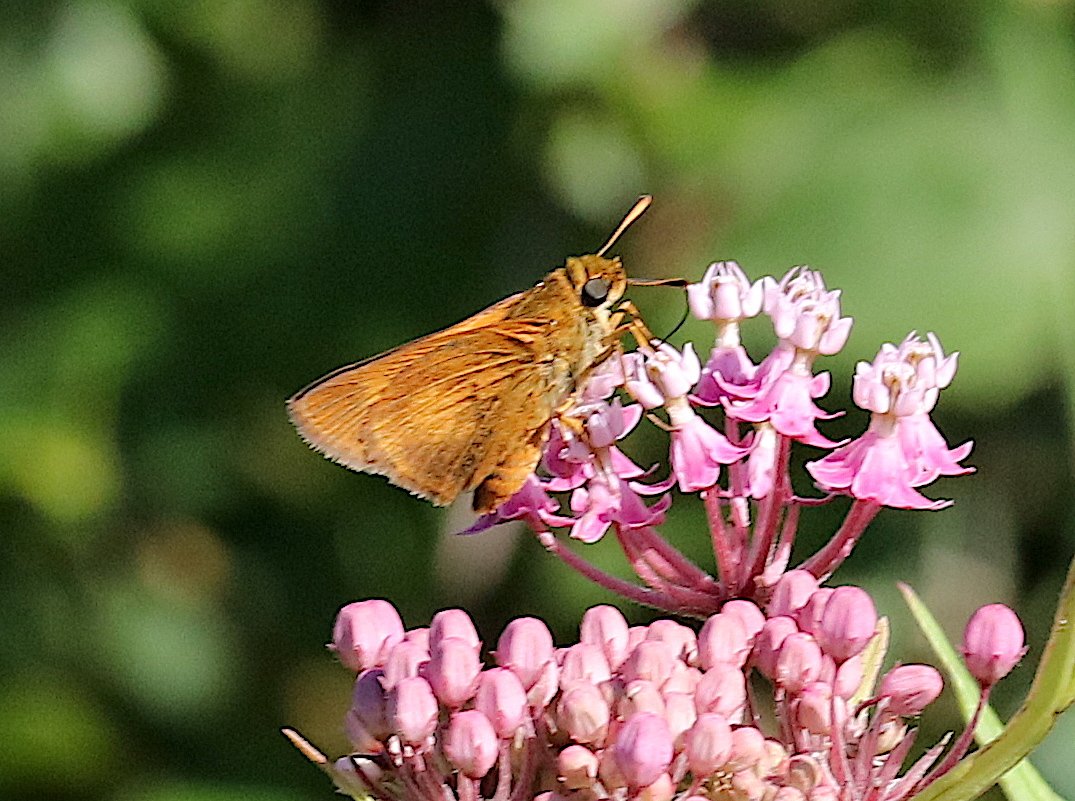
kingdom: Animalia
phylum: Arthropoda
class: Insecta
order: Lepidoptera
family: Hesperiidae
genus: Euphyes
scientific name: Euphyes conspicua
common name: Black Dash
